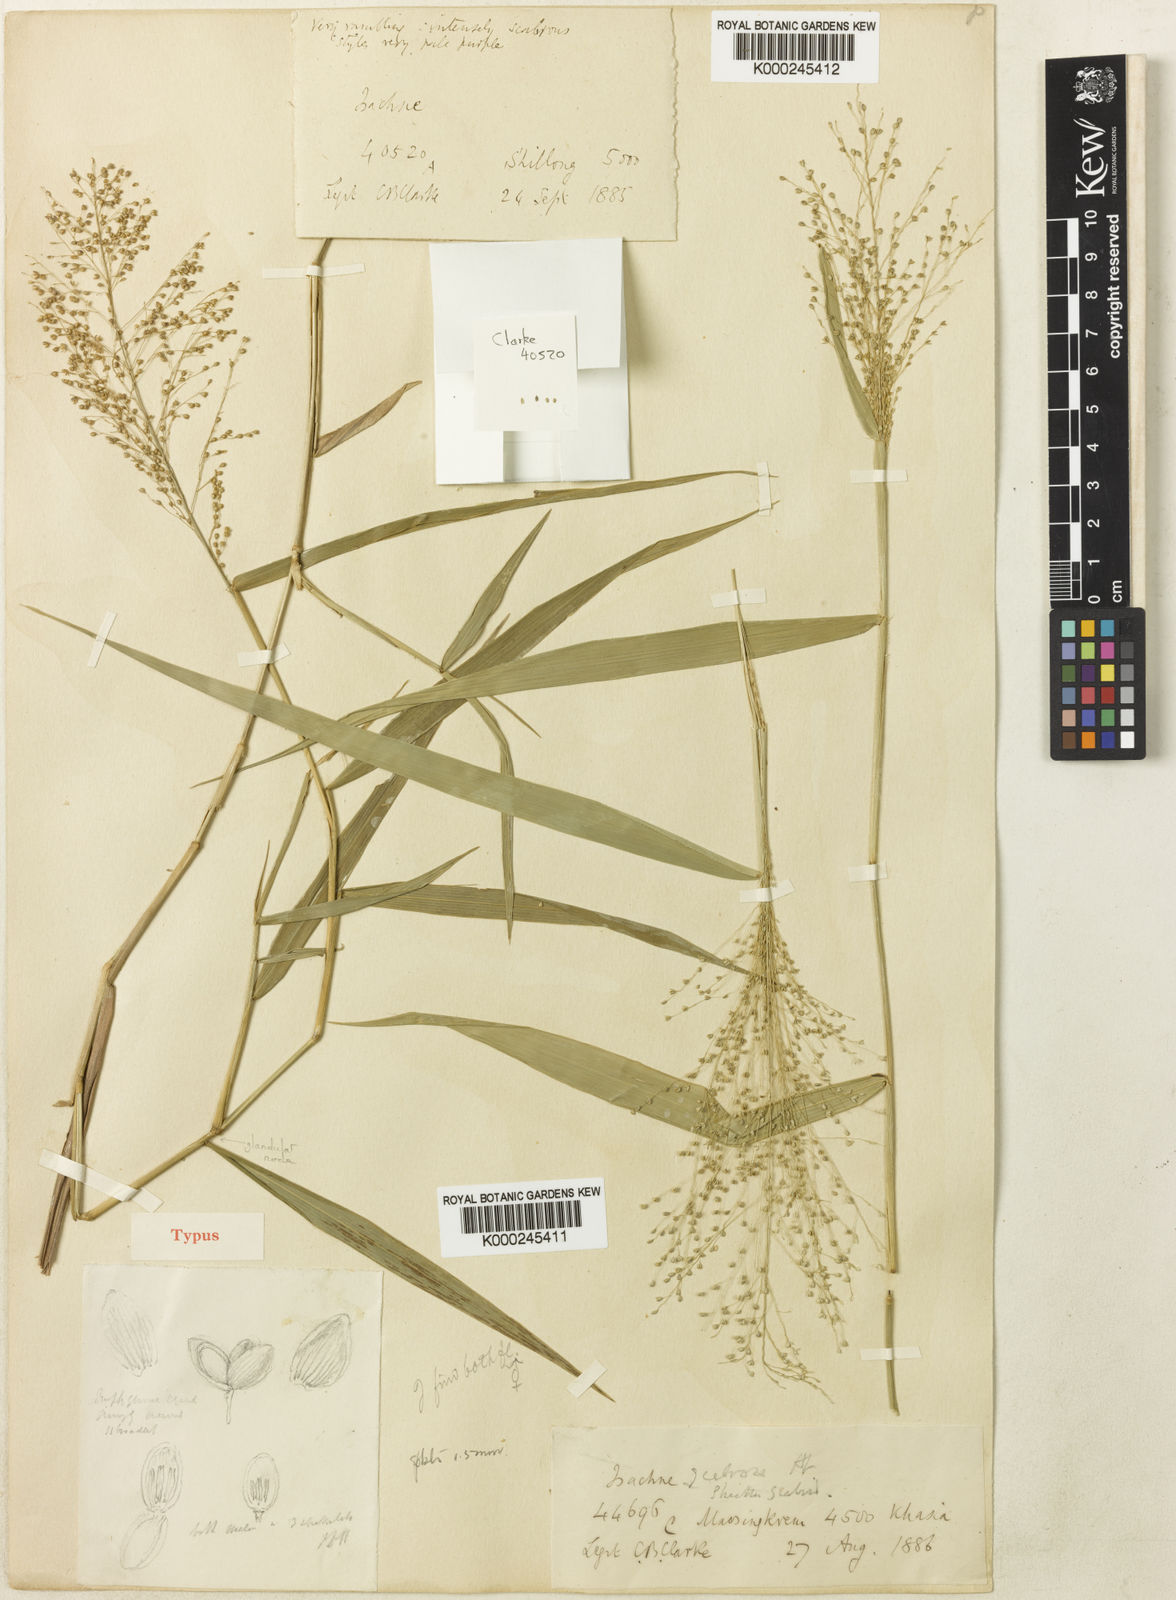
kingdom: Plantae
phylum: Tracheophyta
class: Liliopsida
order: Poales
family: Poaceae
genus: Isachne
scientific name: Isachne scabrosa
